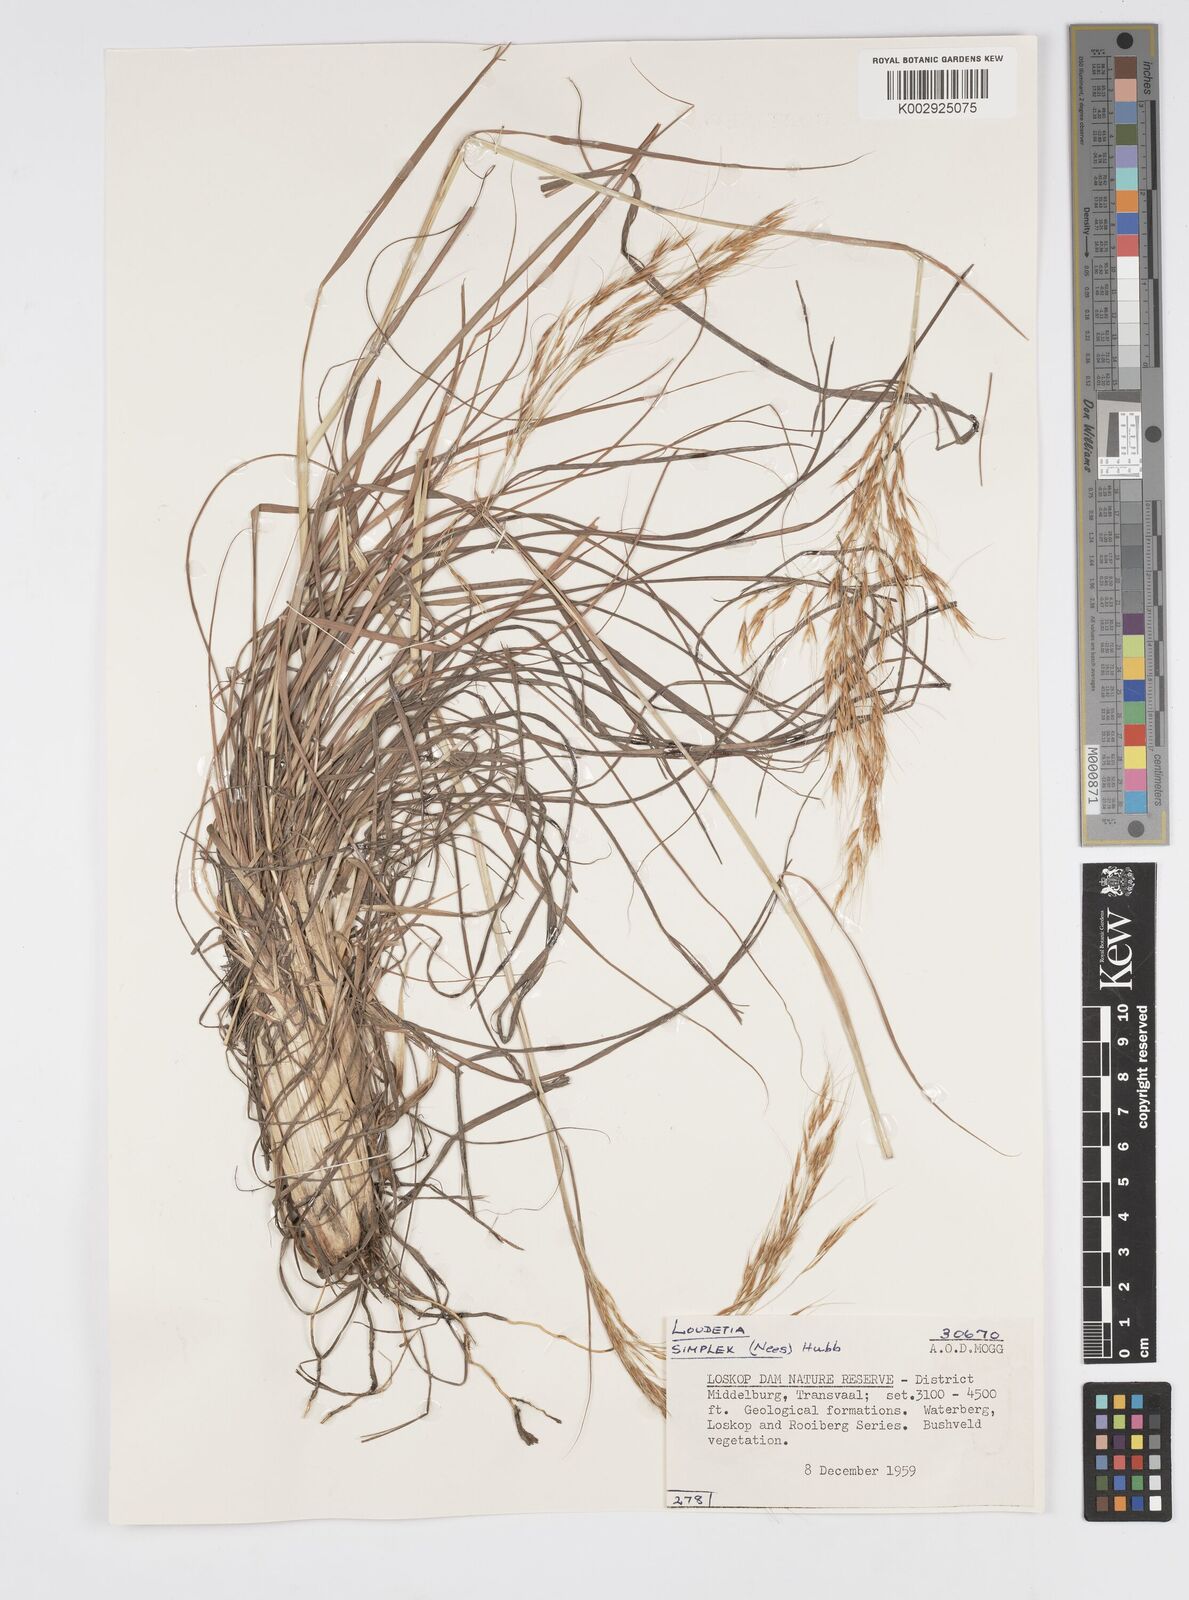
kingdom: Plantae
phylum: Tracheophyta
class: Liliopsida
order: Poales
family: Poaceae
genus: Loudetia
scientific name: Loudetia flavida
